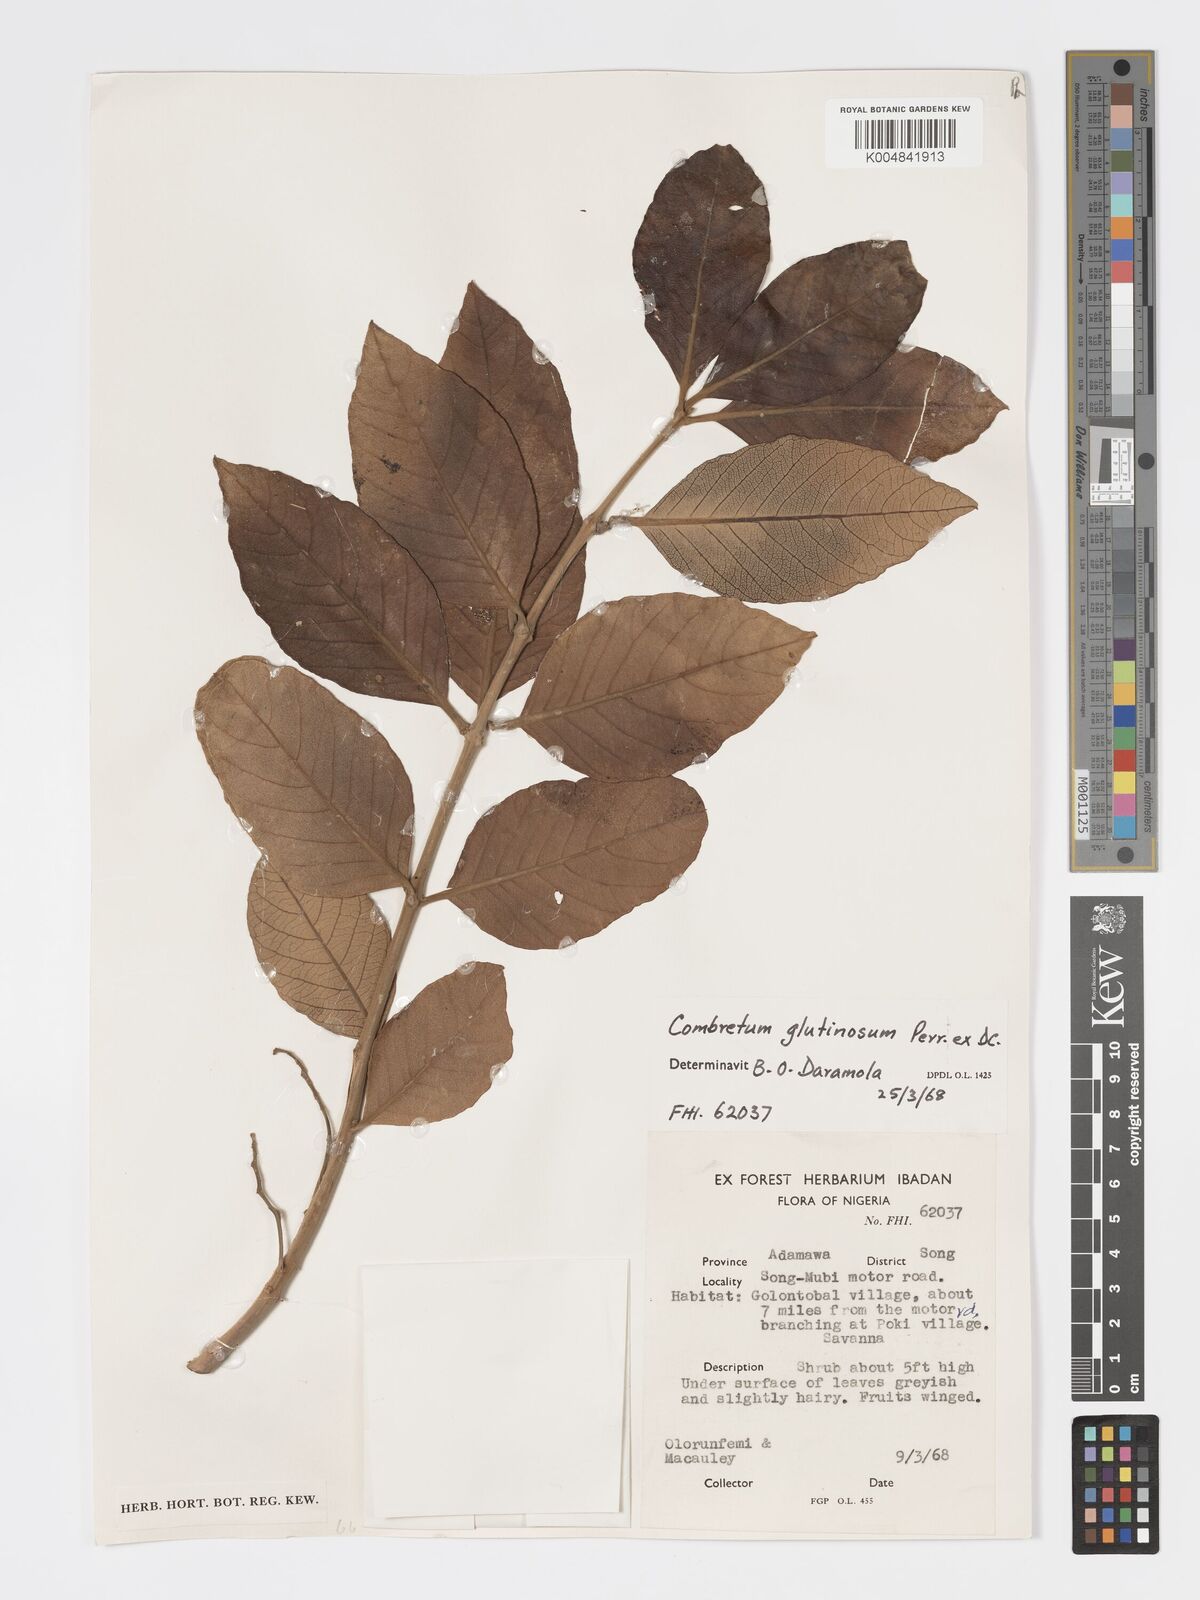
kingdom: Plantae
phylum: Tracheophyta
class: Magnoliopsida
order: Myrtales
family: Combretaceae
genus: Combretum
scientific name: Combretum
